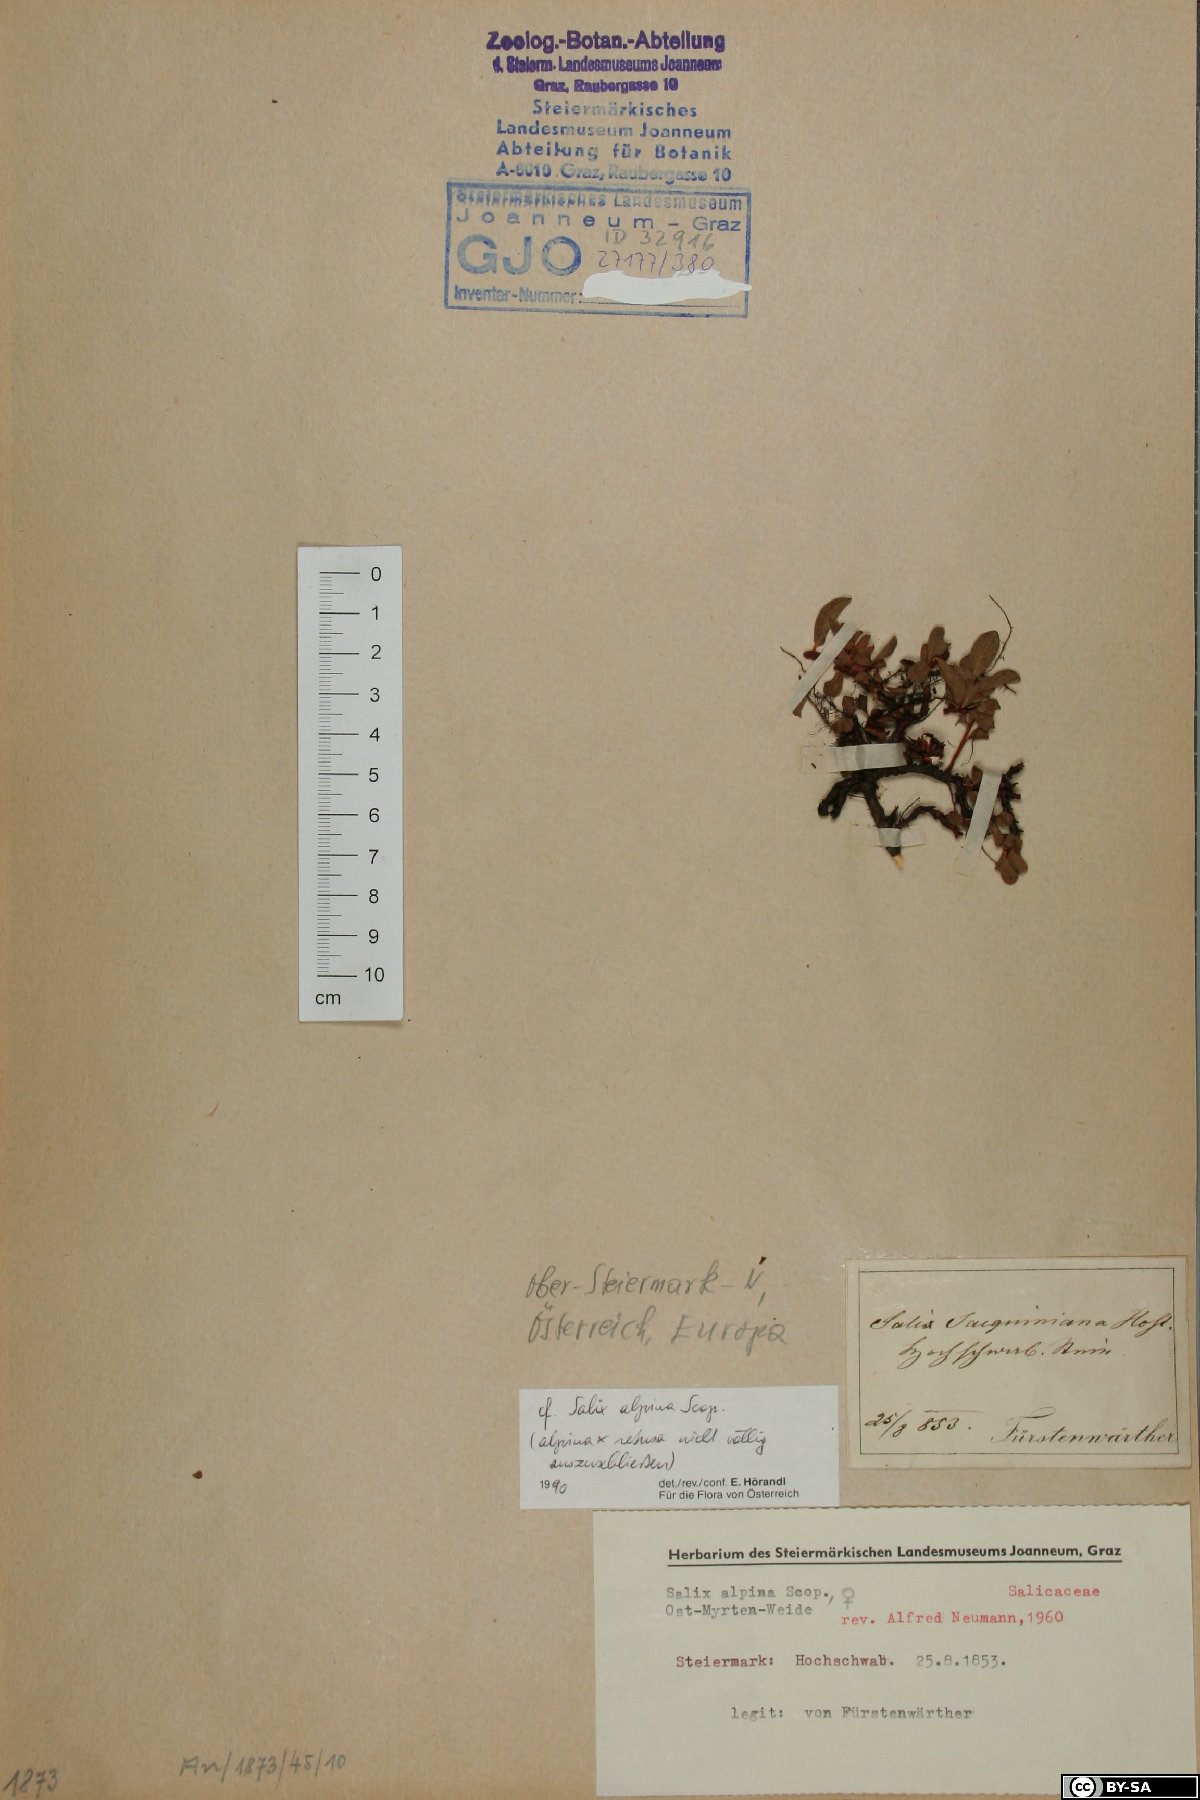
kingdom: Plantae
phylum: Tracheophyta
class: Magnoliopsida
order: Malpighiales
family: Salicaceae
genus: Salix
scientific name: Salix alpina
